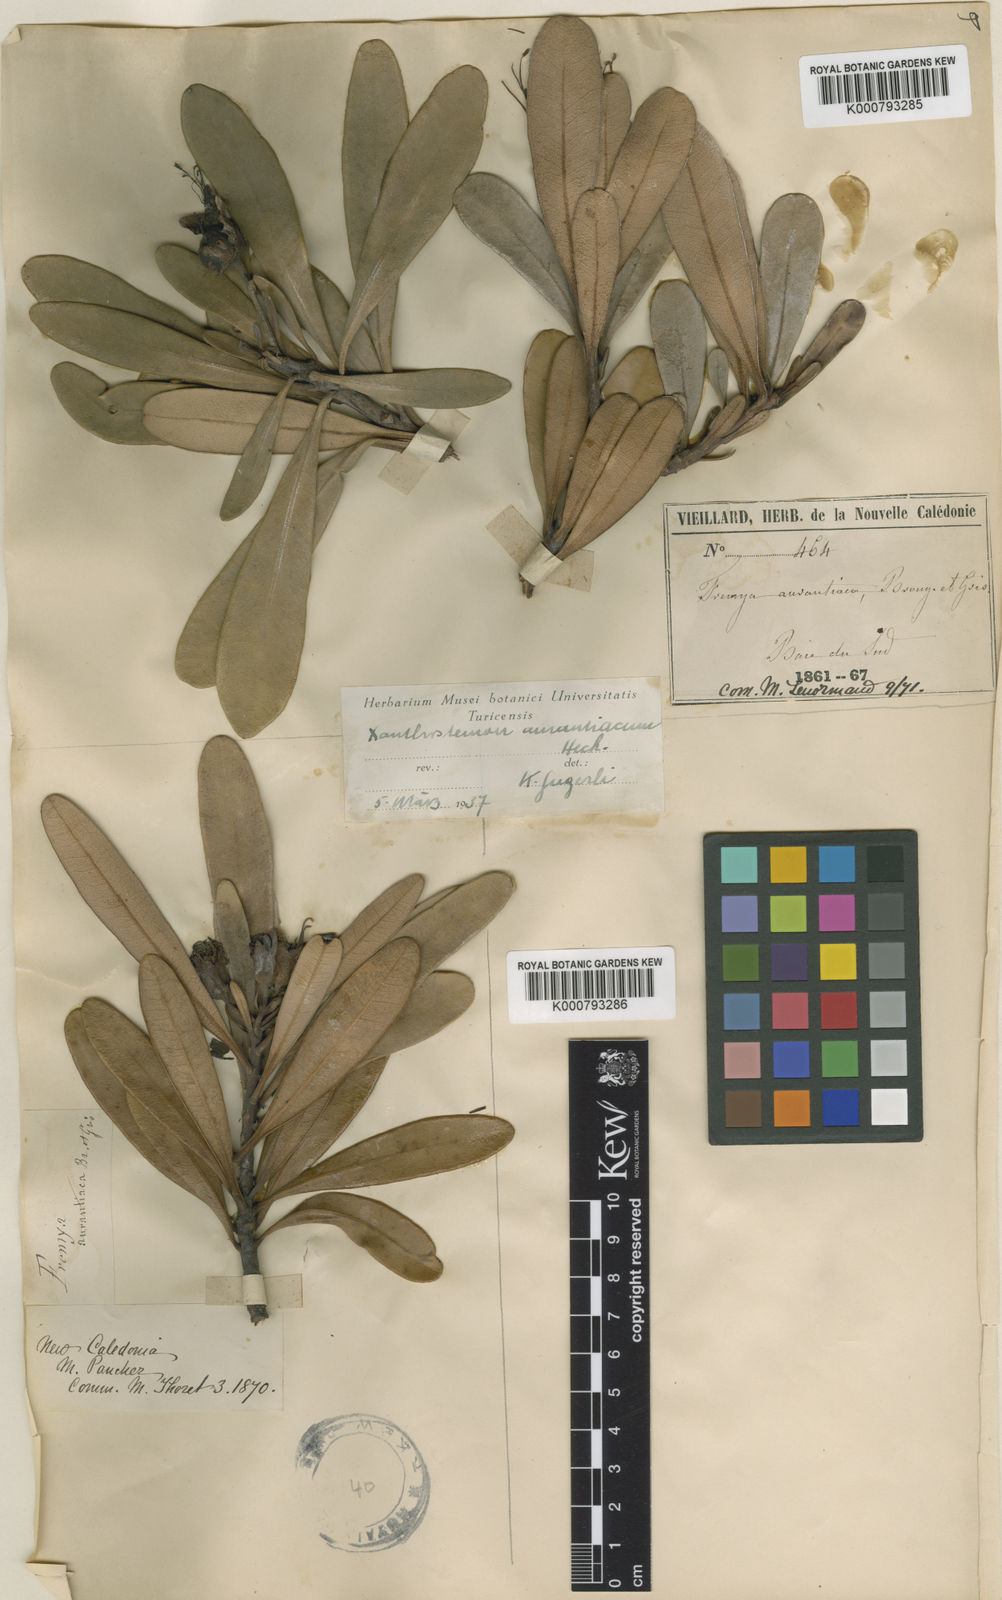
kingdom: Plantae
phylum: Tracheophyta
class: Magnoliopsida
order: Myrtales
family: Myrtaceae
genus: Xanthostemon
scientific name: Xanthostemon
